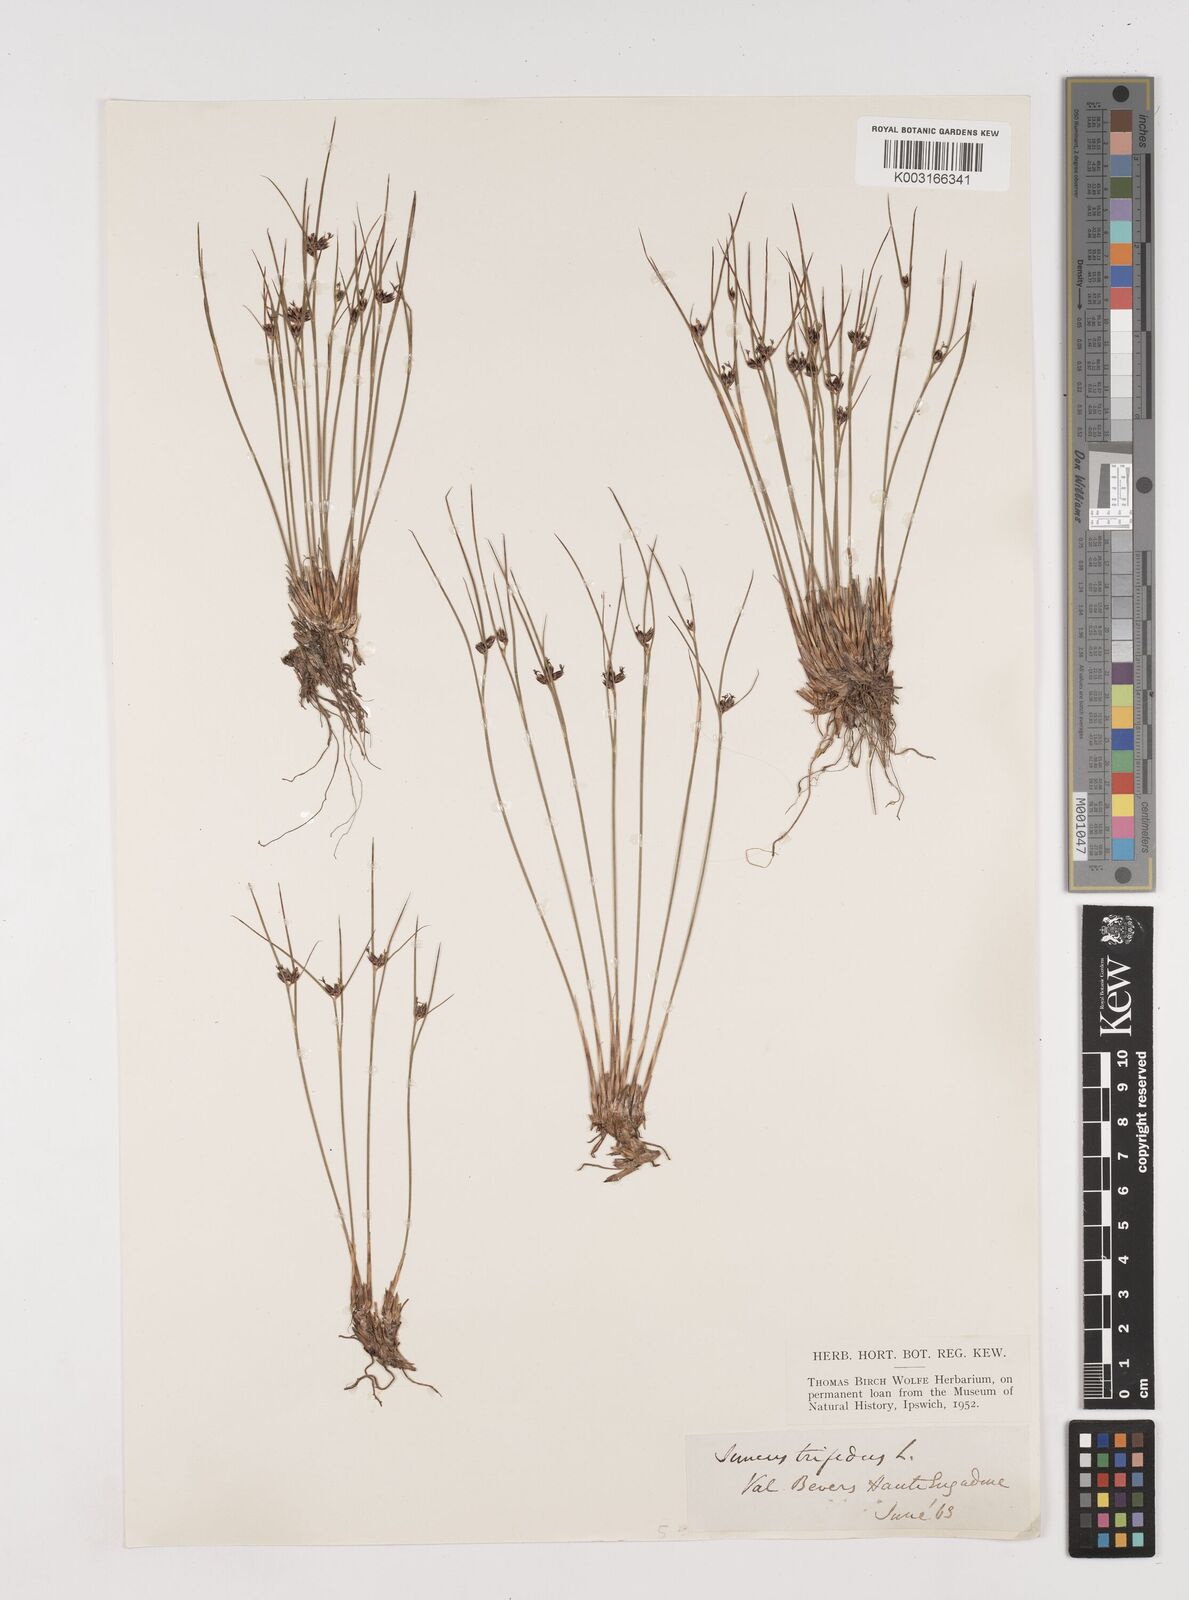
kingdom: Plantae
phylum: Tracheophyta
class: Liliopsida
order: Poales
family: Juncaceae
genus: Oreojuncus
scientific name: Oreojuncus trifidus
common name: Highland rush
